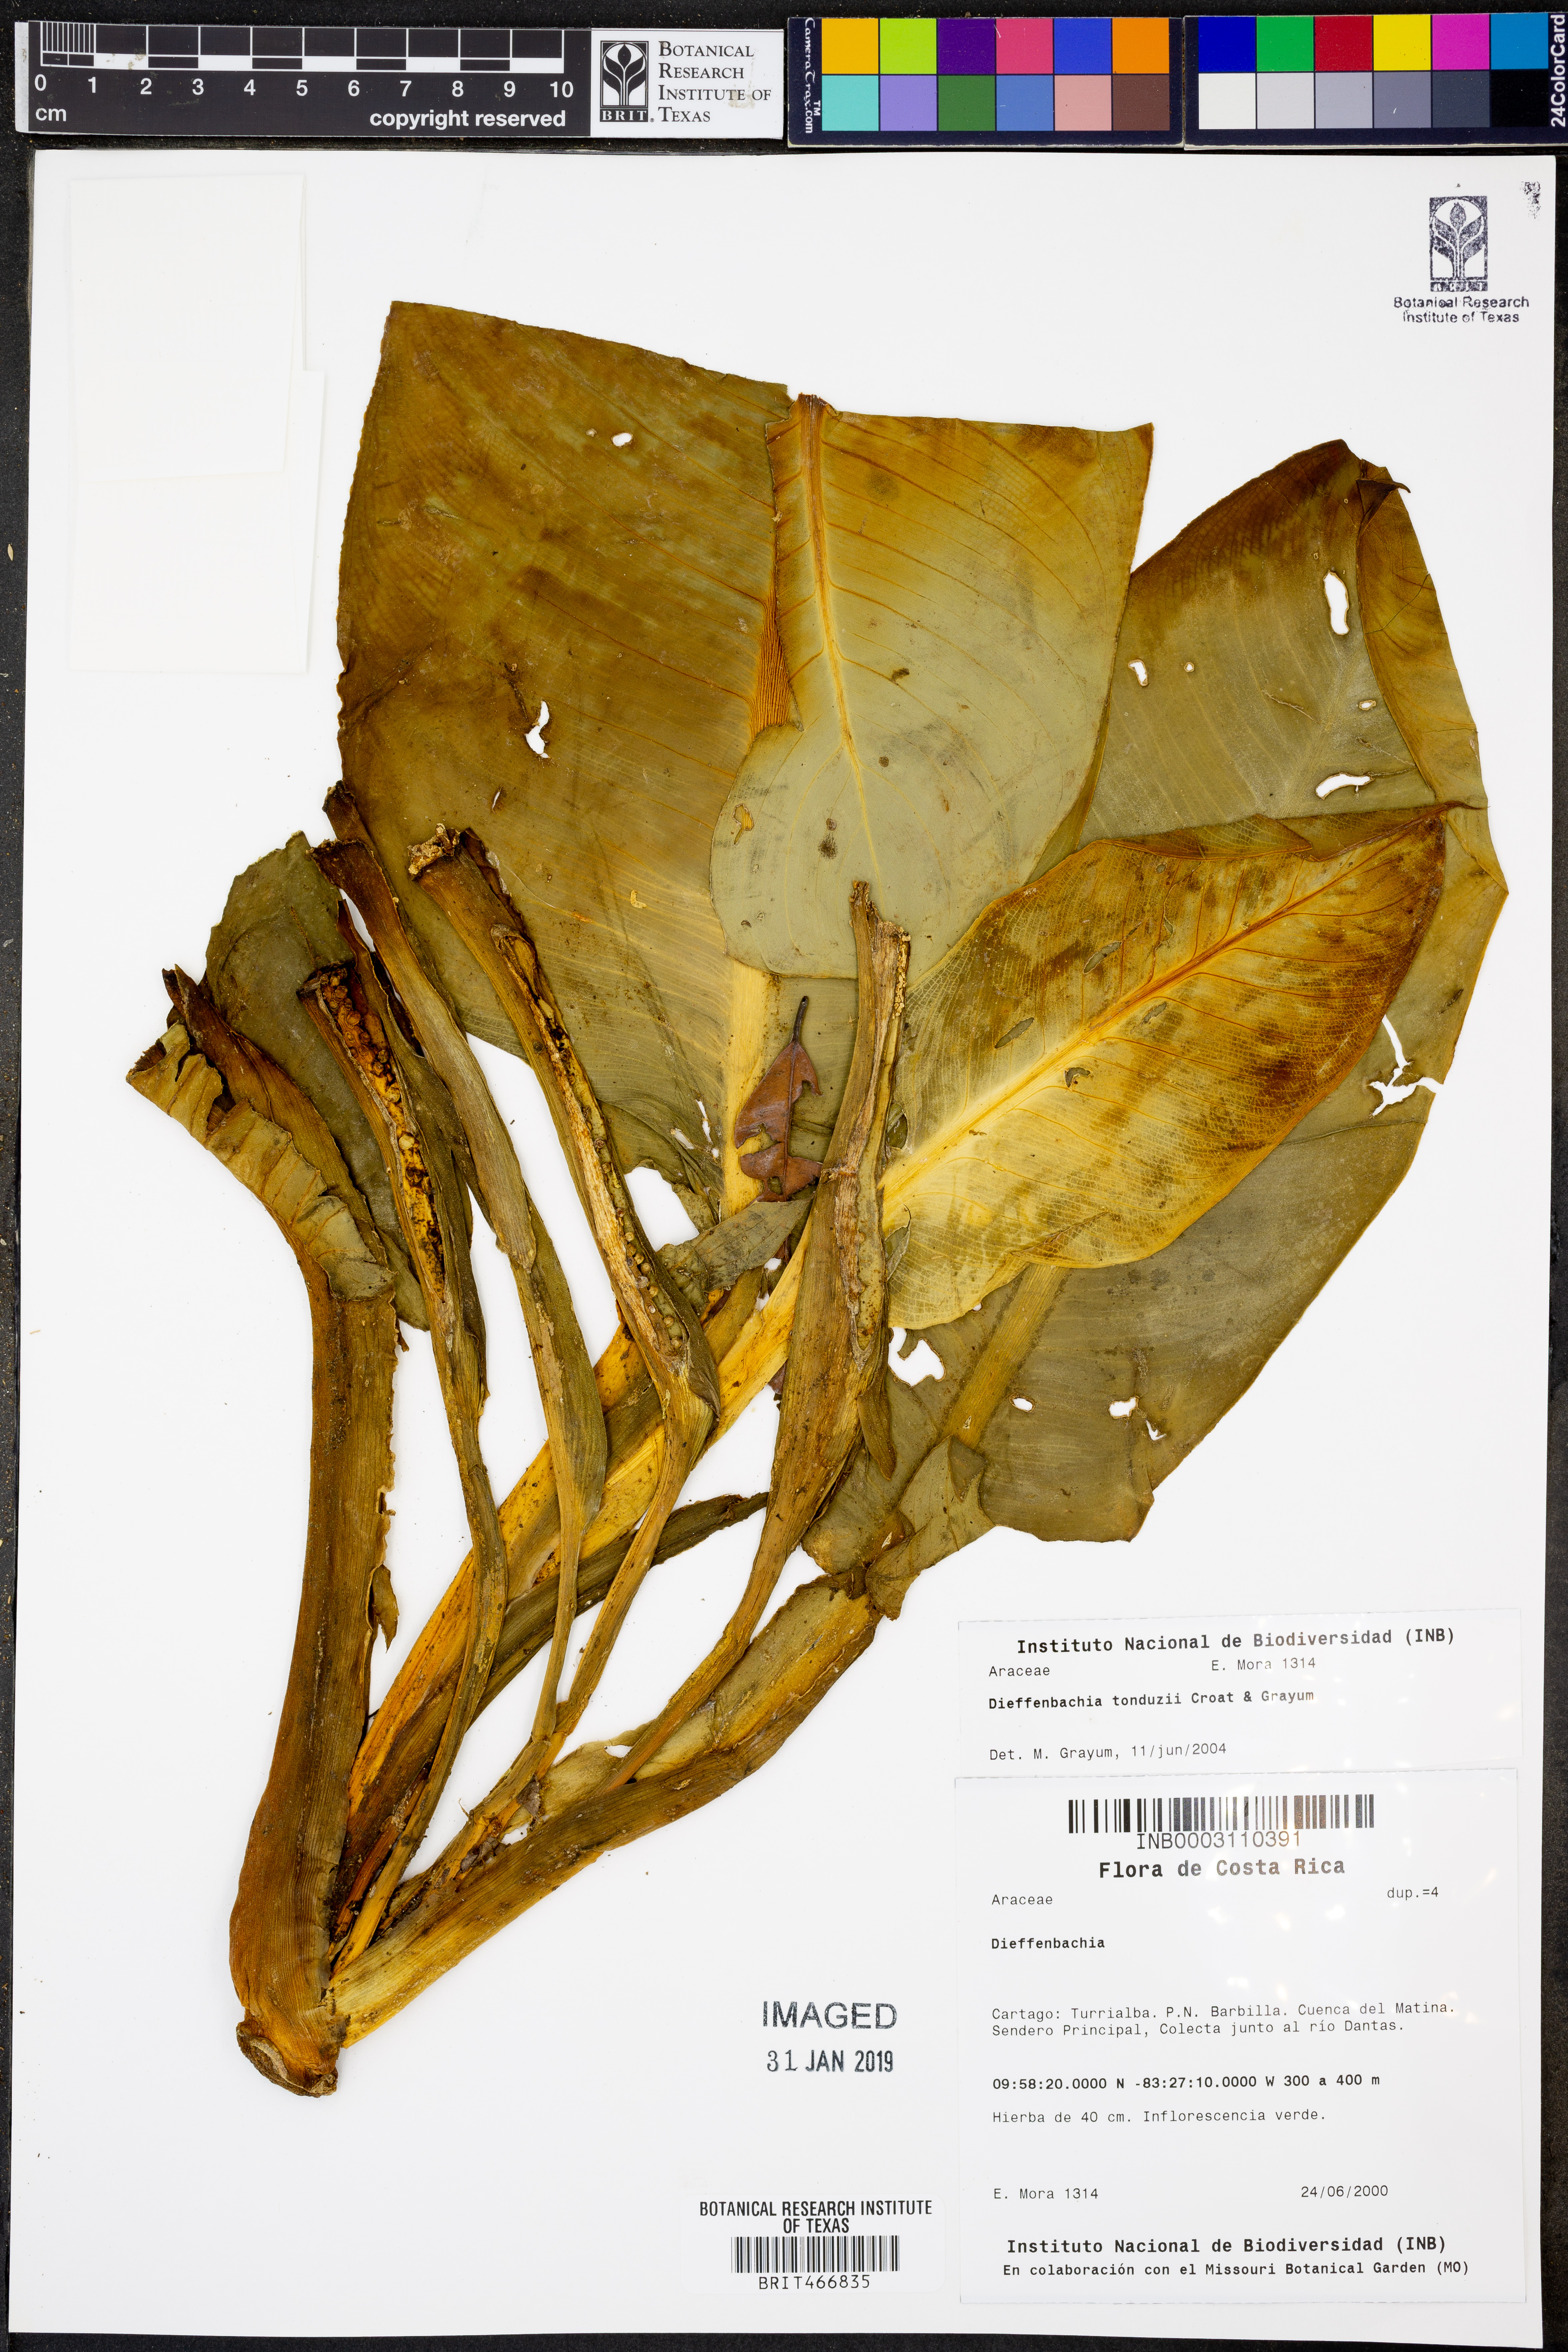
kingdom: Plantae
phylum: Tracheophyta
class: Liliopsida
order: Alismatales
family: Araceae
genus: Dieffenbachia
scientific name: Dieffenbachia tonduzii
